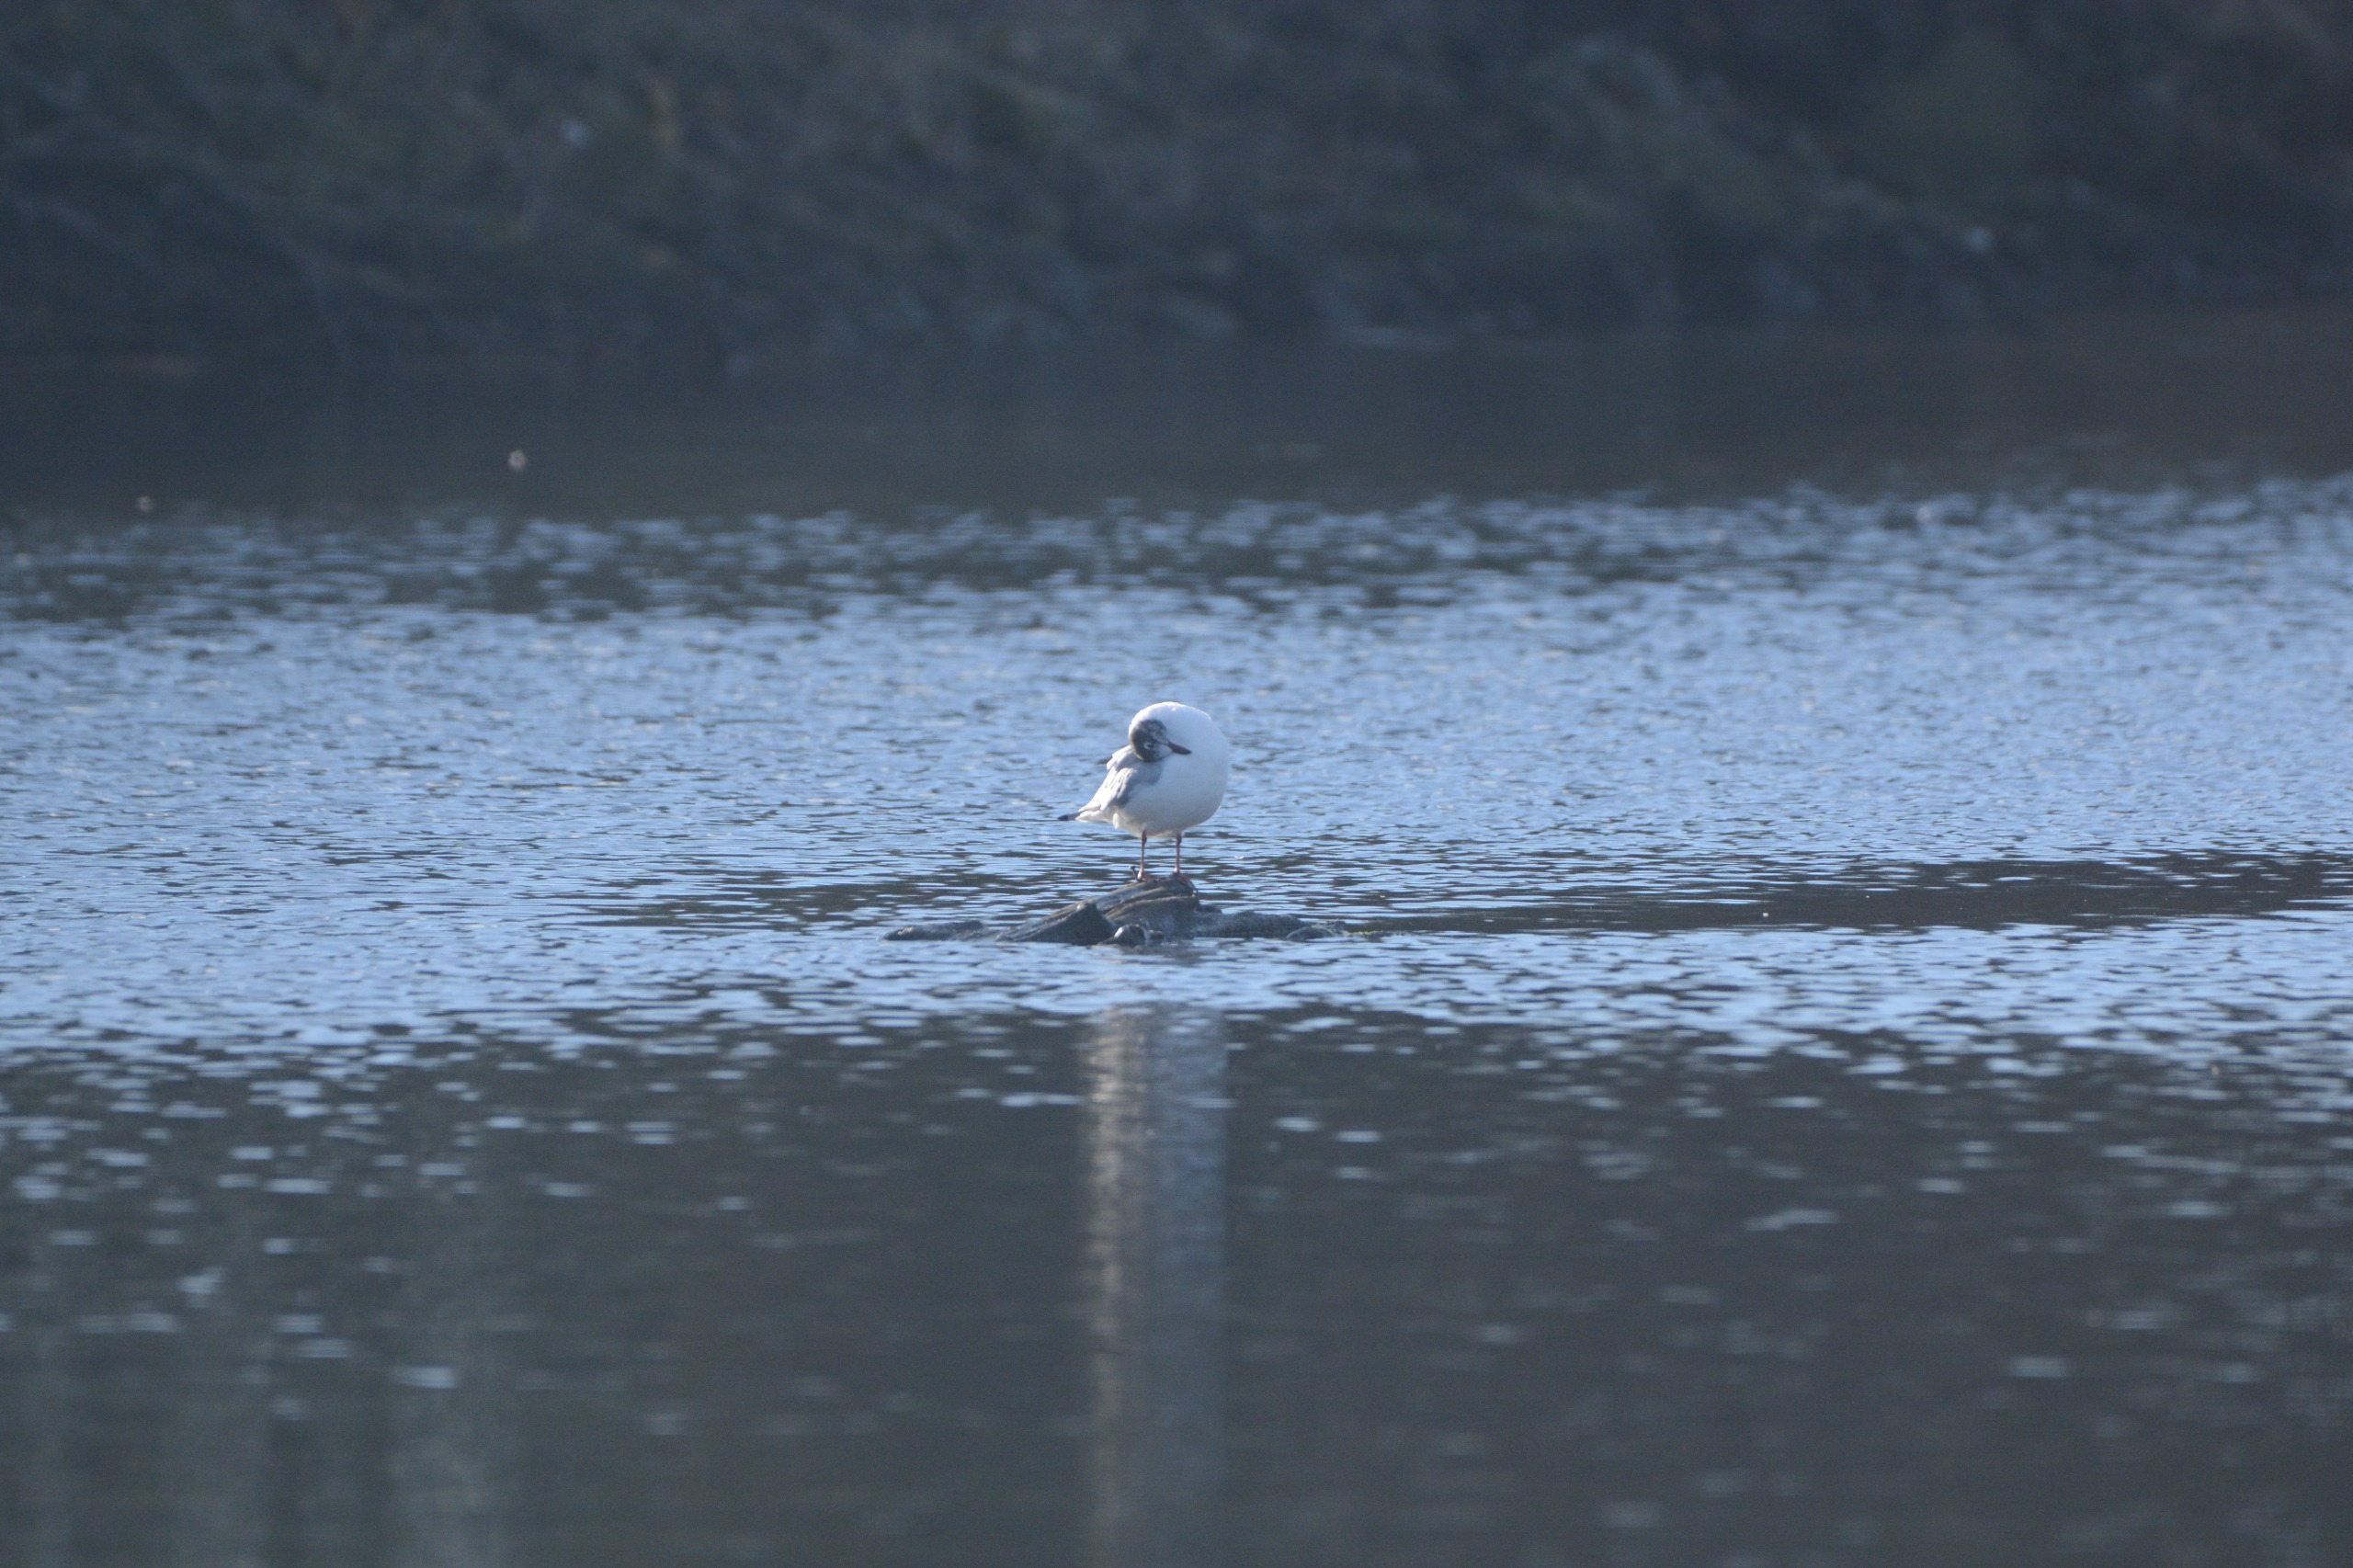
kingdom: Animalia
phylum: Chordata
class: Aves
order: Charadriiformes
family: Laridae
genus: Chroicocephalus
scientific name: Chroicocephalus ridibundus
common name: Hættemåge
